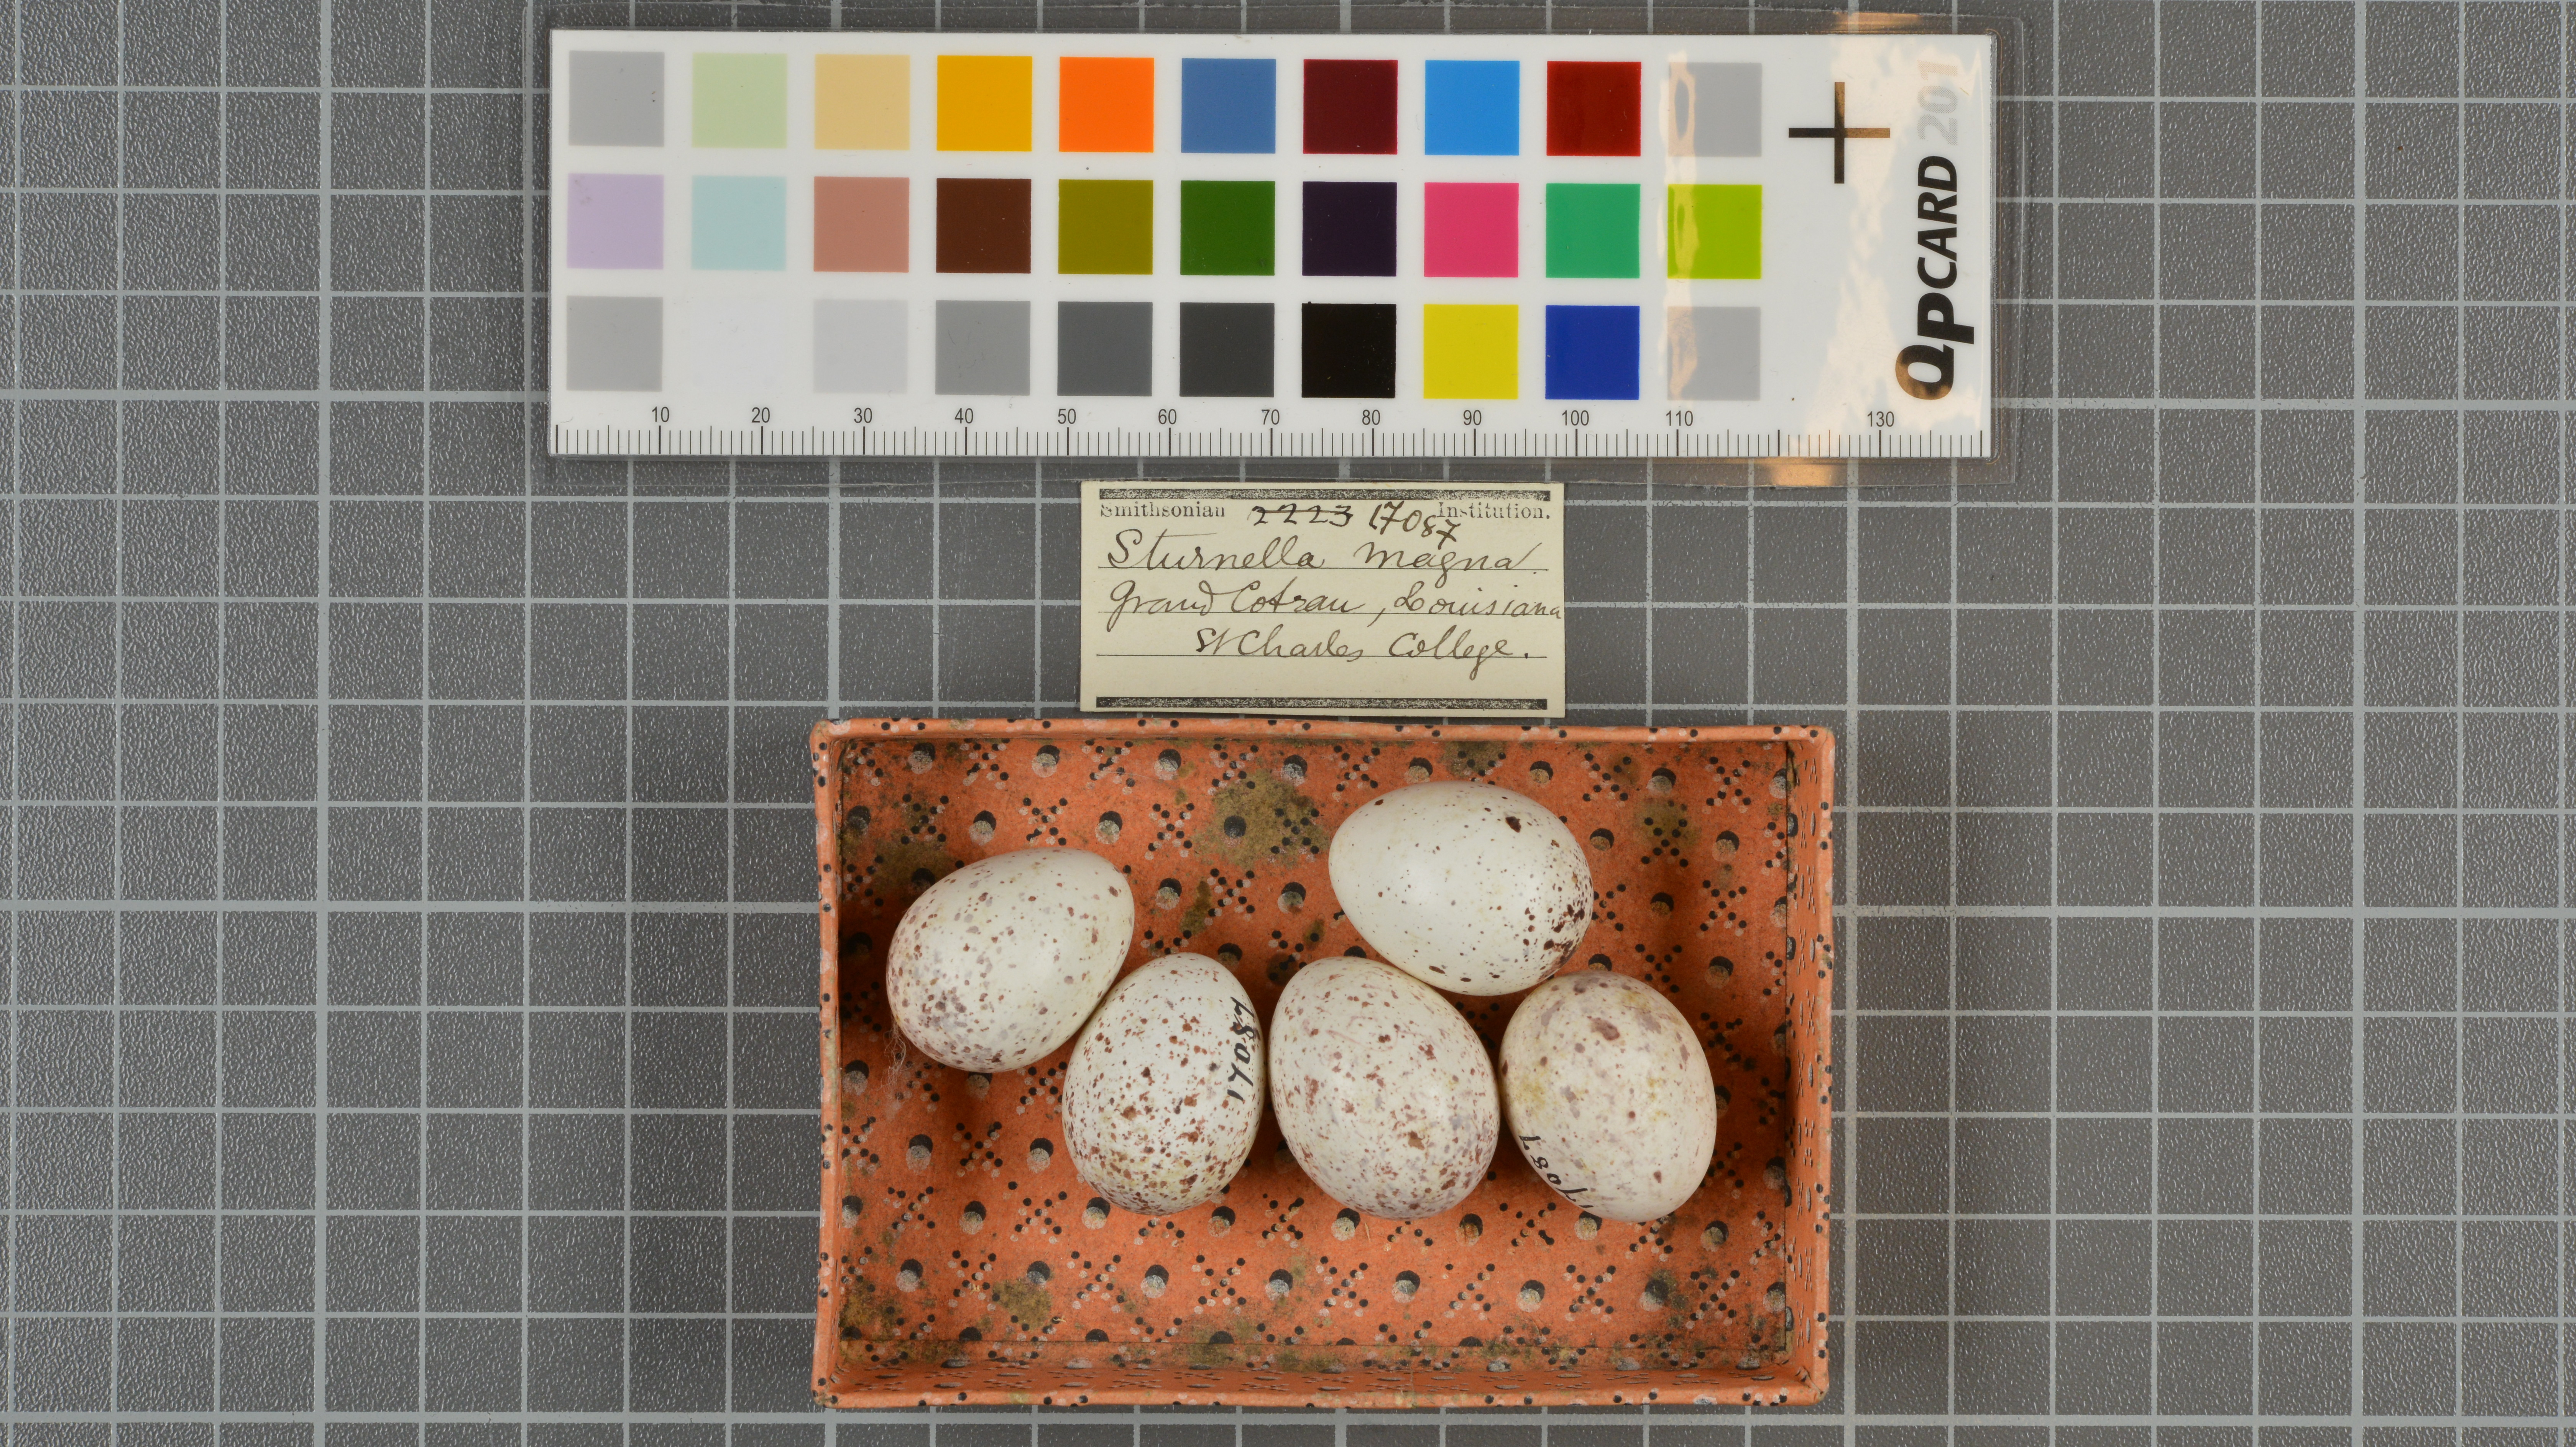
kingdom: Animalia
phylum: Chordata
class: Aves
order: Passeriformes
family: Icteridae
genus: Sturnella
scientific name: Sturnella magna
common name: Eastern meadowlark
